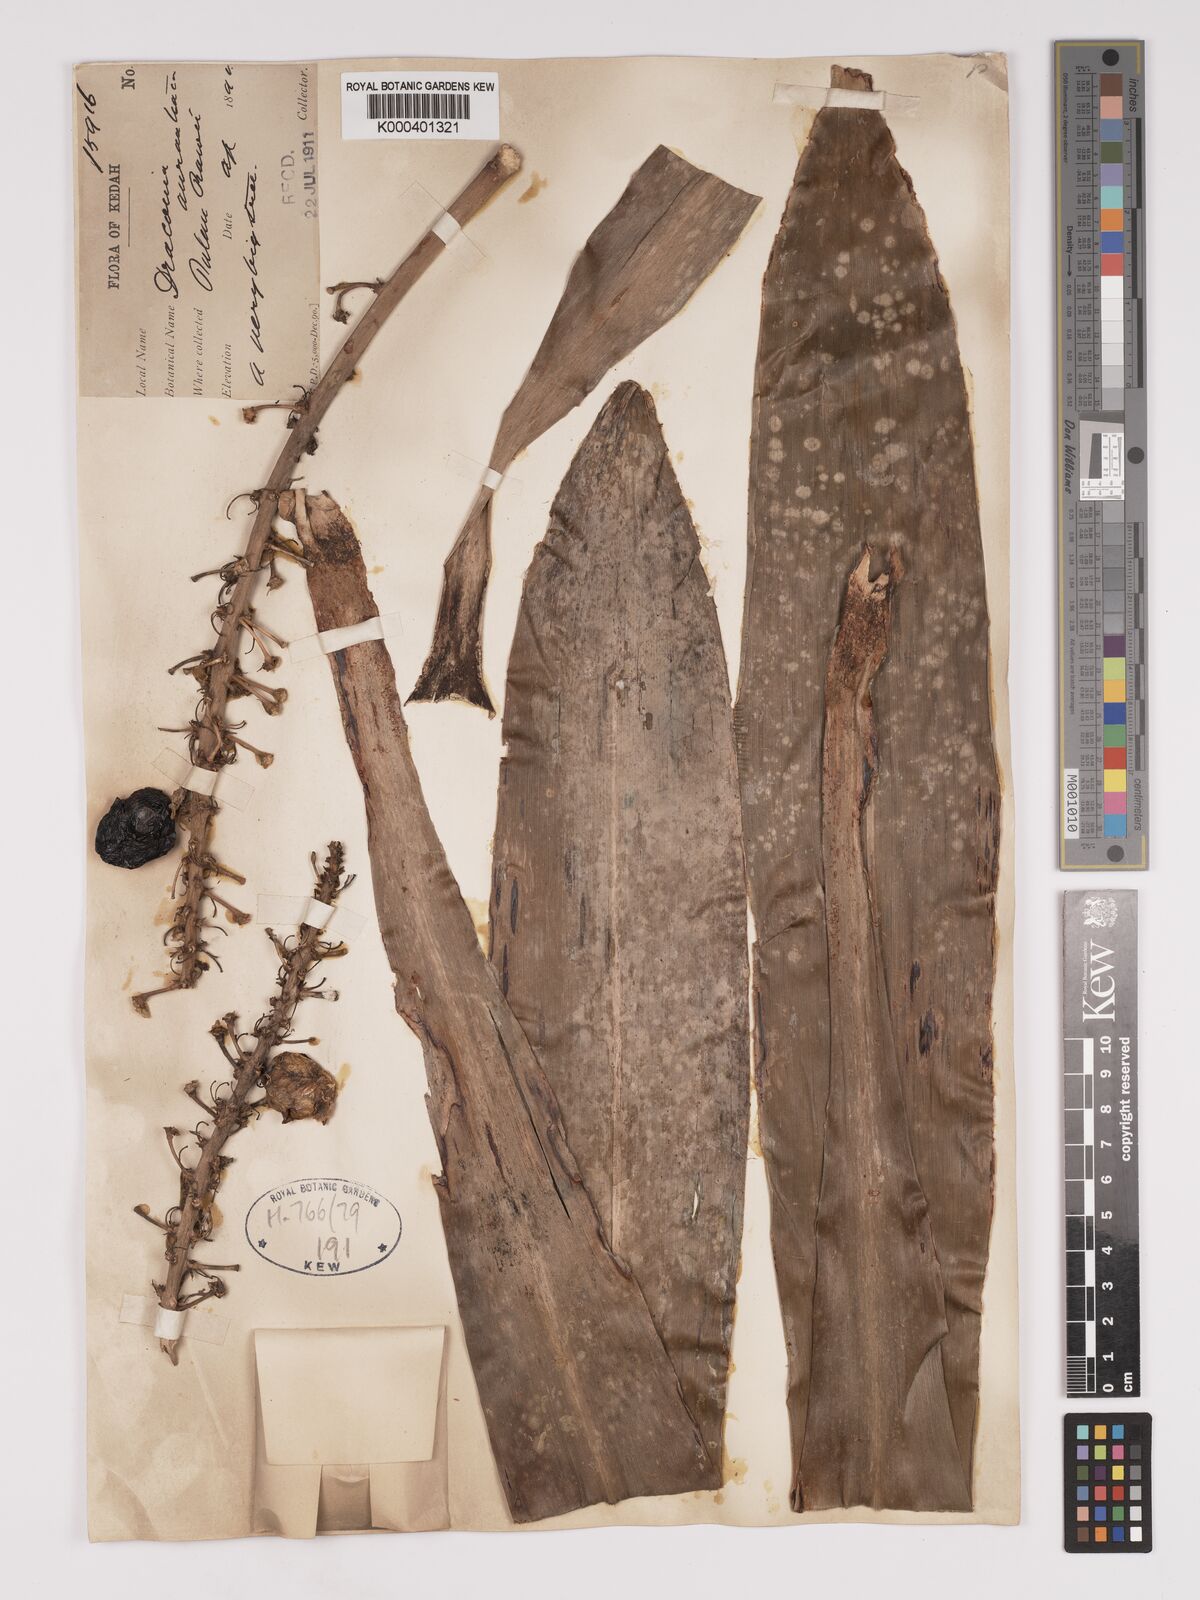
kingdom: Plantae
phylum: Tracheophyta
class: Liliopsida
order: Asparagales
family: Asparagaceae
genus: Dracaena
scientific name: Dracaena
